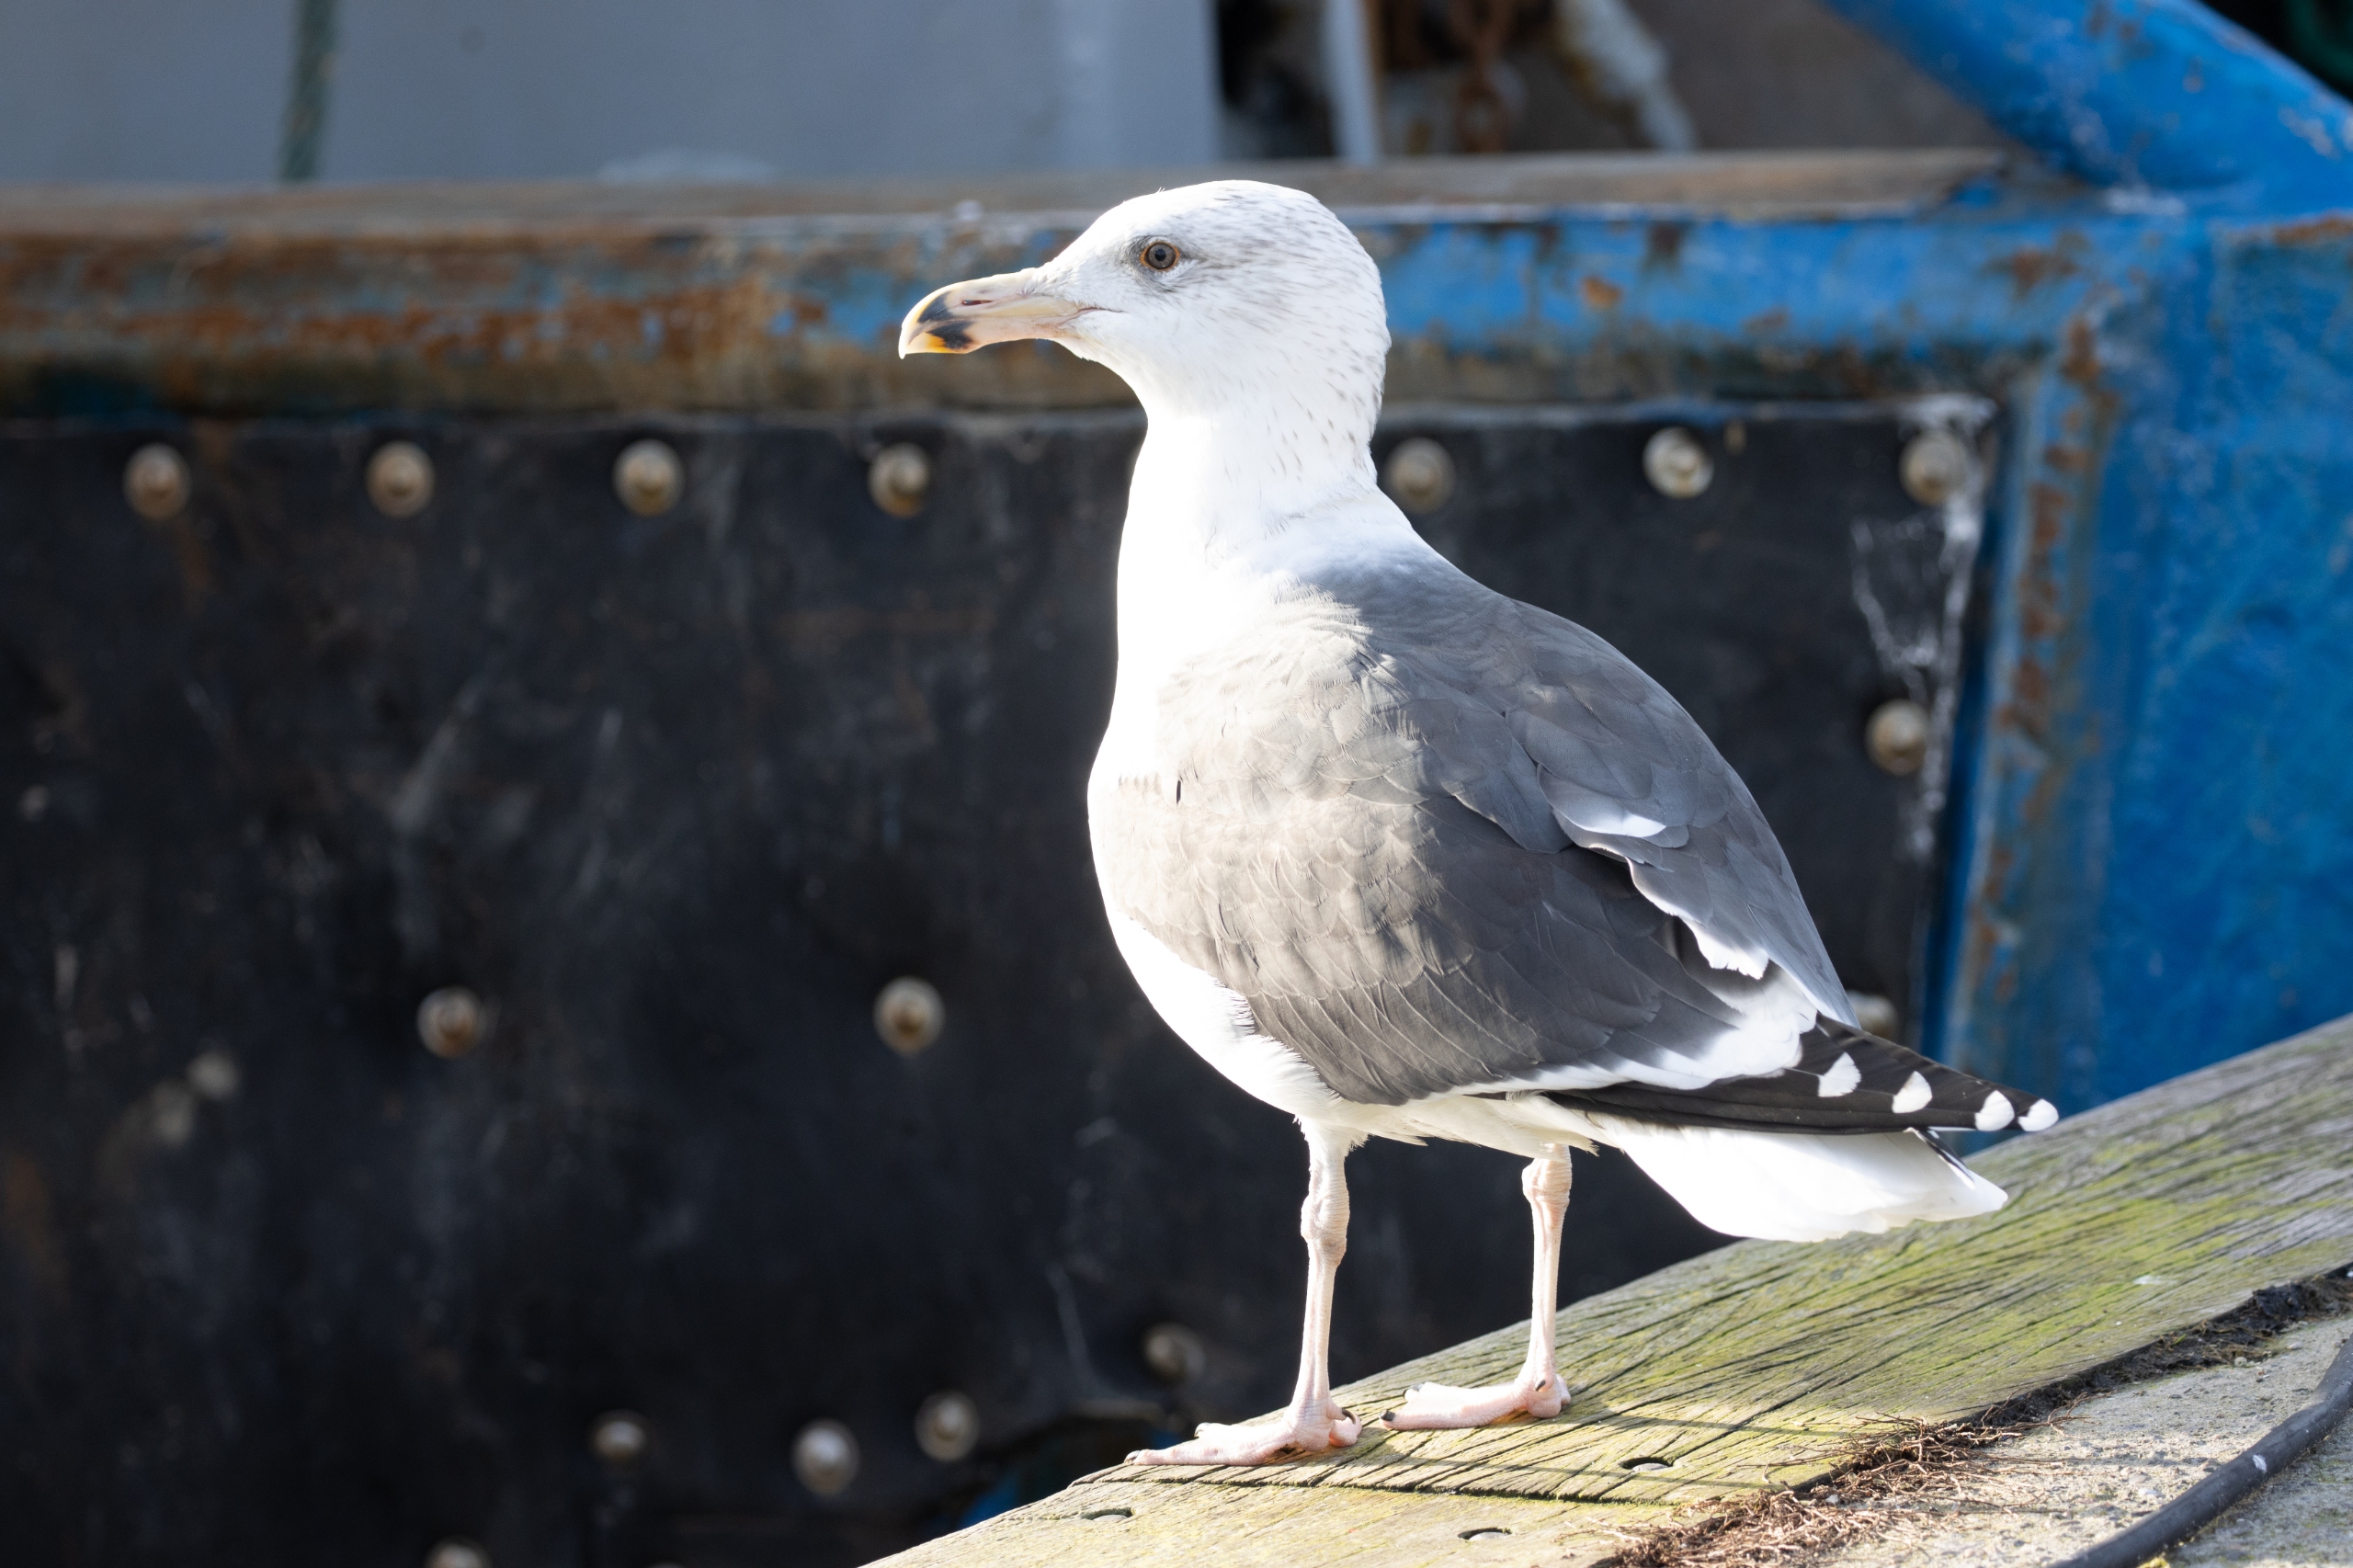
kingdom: Animalia
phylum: Chordata
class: Aves
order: Charadriiformes
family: Laridae
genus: Larus
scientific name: Larus marinus
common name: Svartbag
